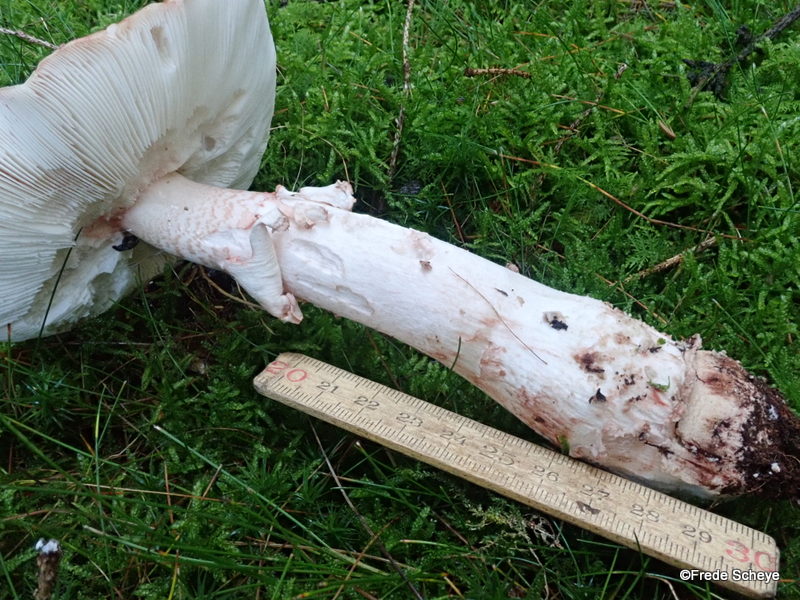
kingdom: Fungi
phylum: Basidiomycota
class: Agaricomycetes
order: Agaricales
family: Amanitaceae
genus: Amanita
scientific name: Amanita rubescens
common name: rødmende fluesvamp
